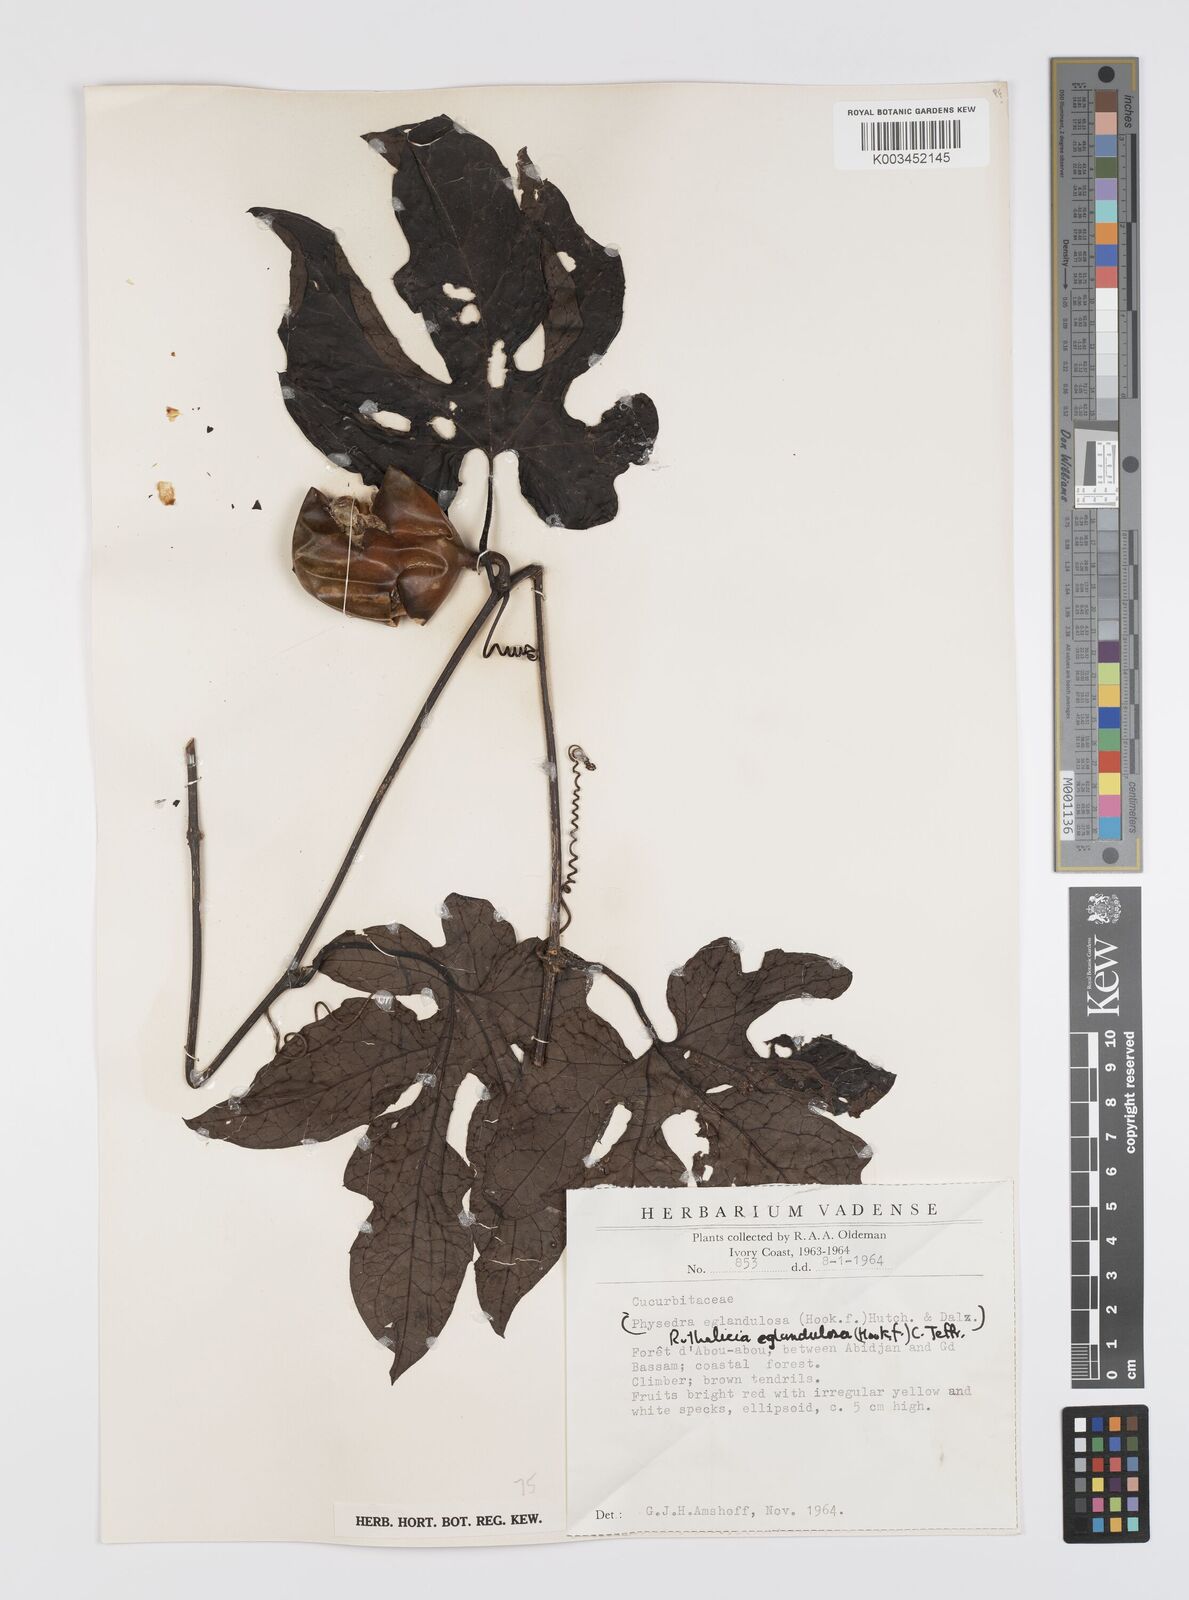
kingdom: Plantae
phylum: Tracheophyta
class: Magnoliopsida
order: Cucurbitales
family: Cucurbitaceae
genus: Ruthalicia
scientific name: Ruthalicia eglandulosa
